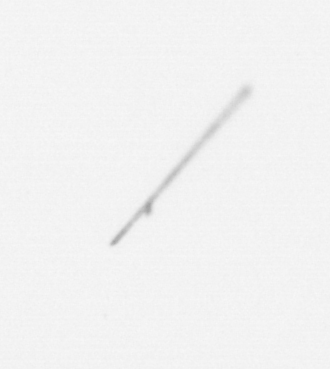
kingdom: Chromista
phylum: Ochrophyta
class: Bacillariophyceae
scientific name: Bacillariophyceae
